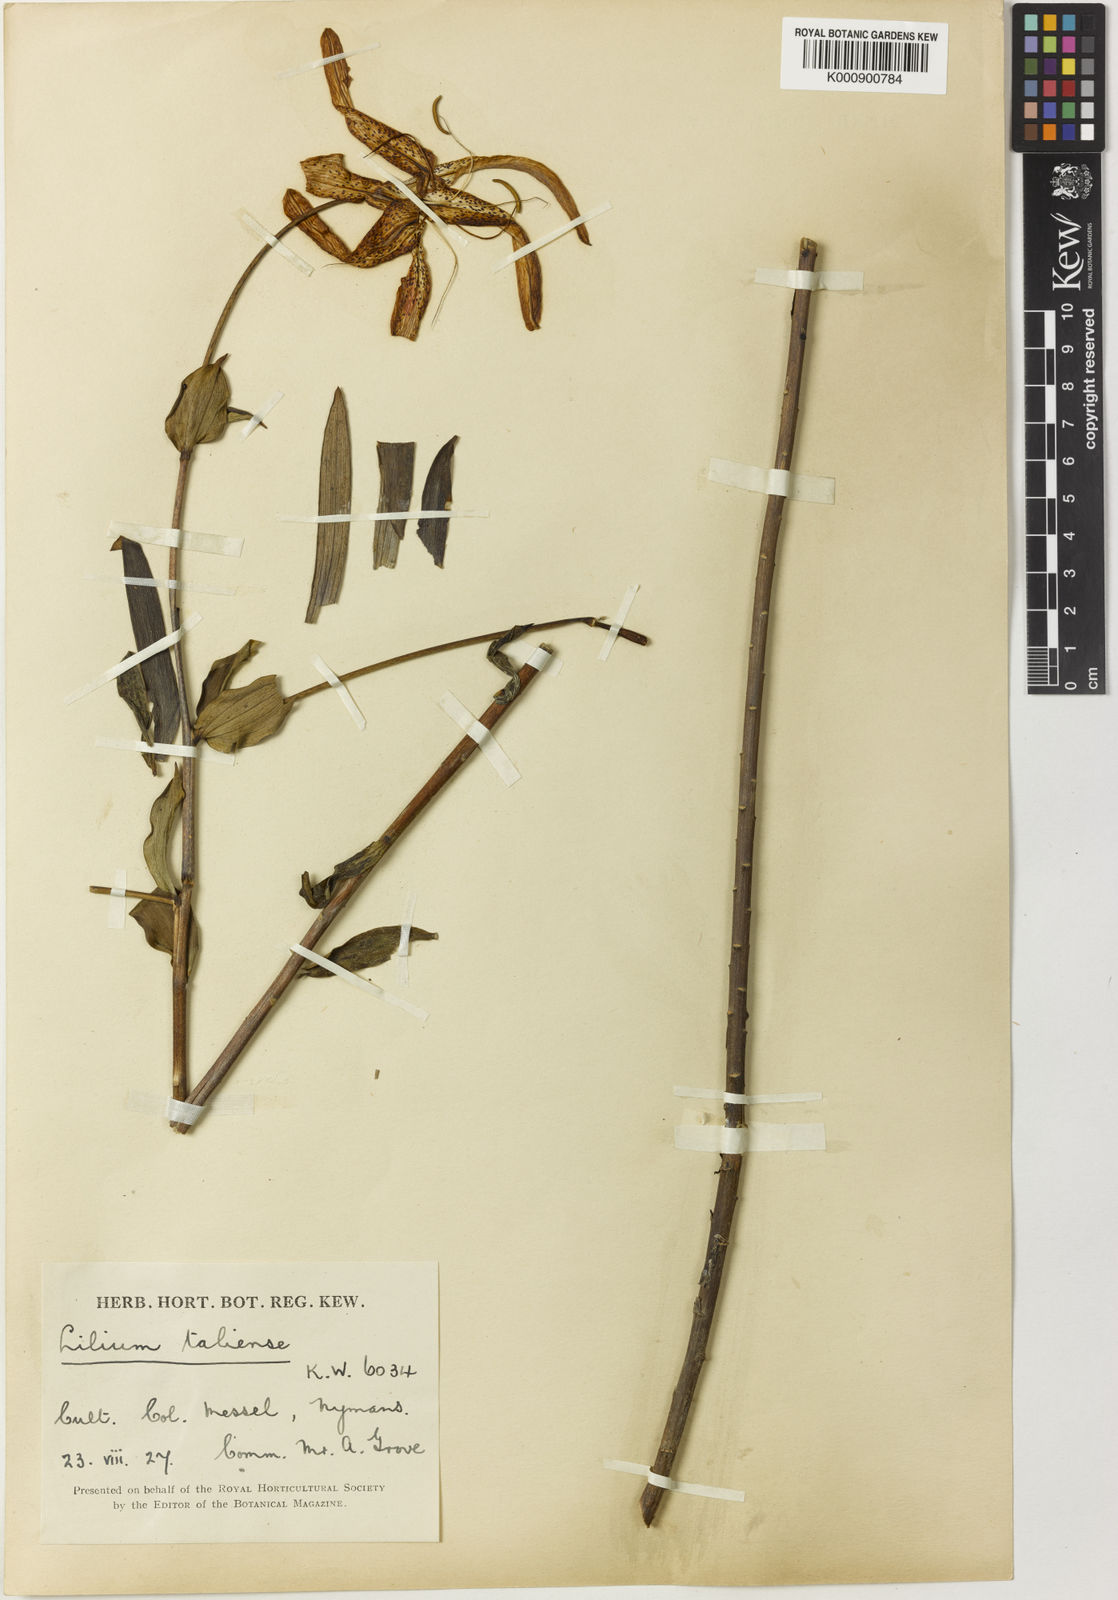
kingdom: Plantae
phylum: Tracheophyta
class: Liliopsida
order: Liliales
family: Liliaceae
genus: Lilium
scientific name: Lilium wardii
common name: Ward's lily
